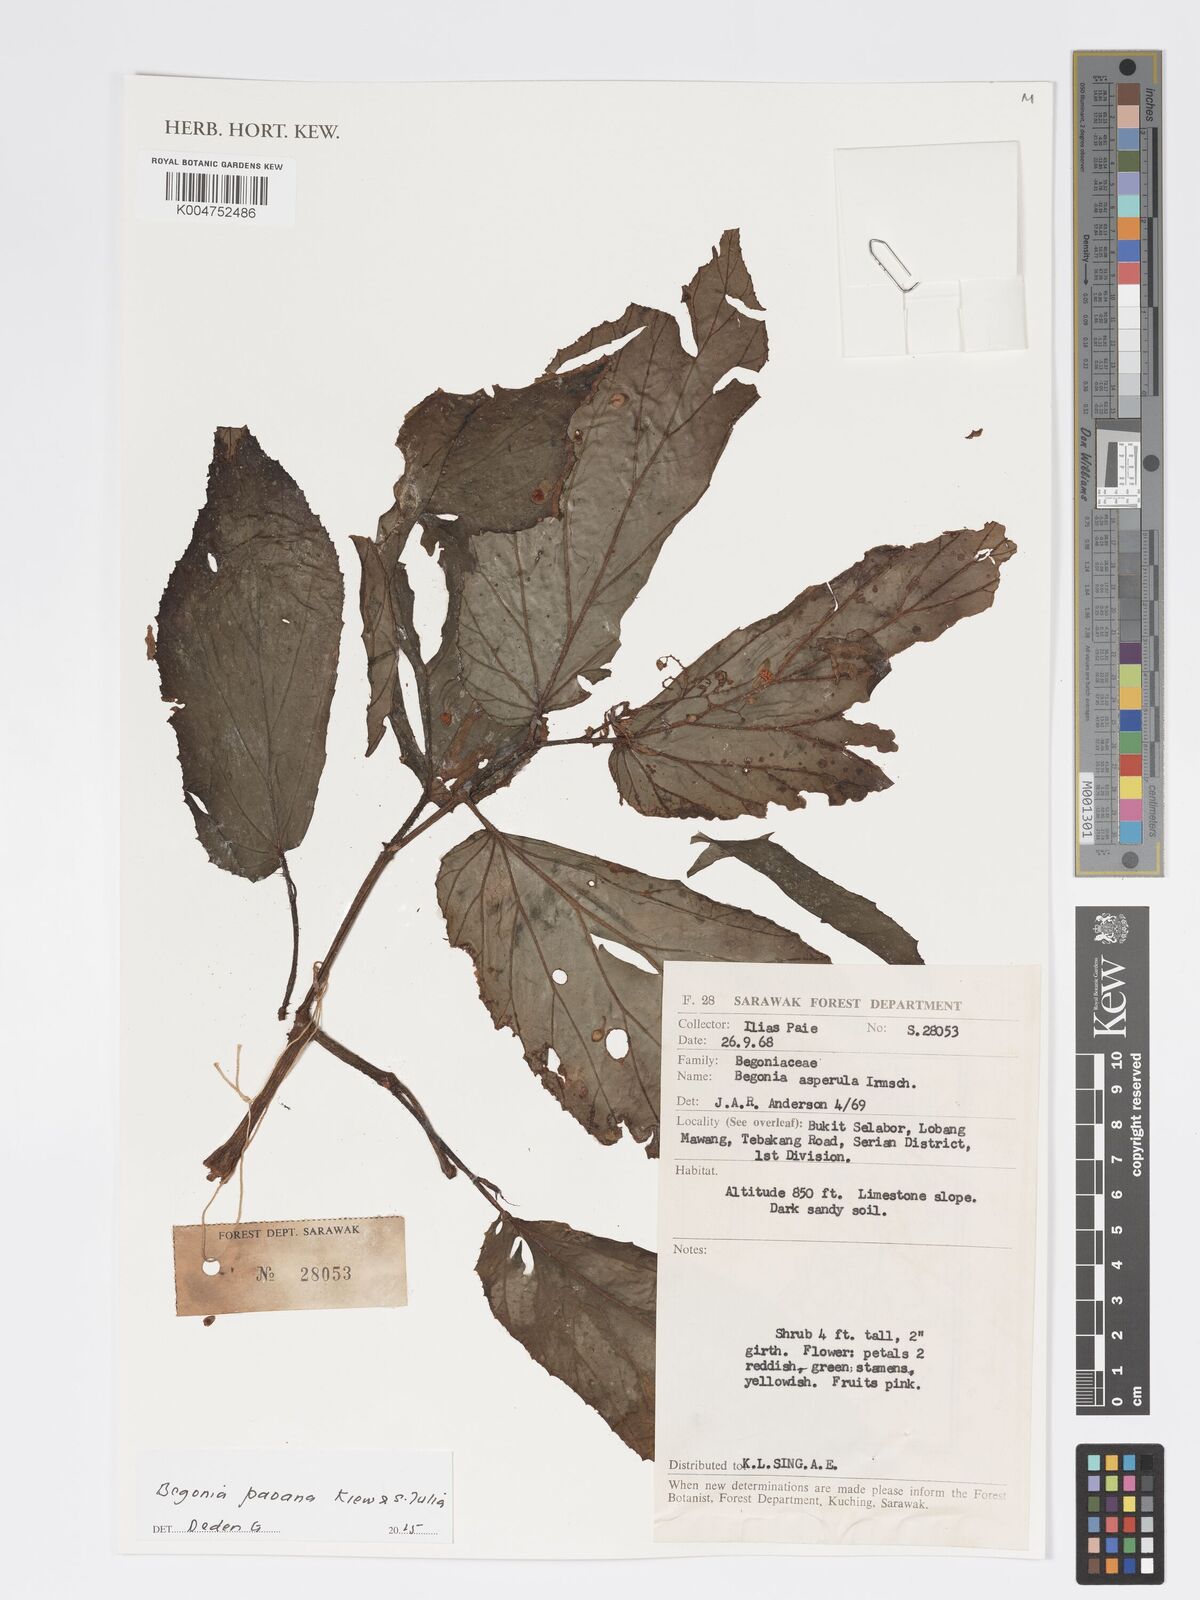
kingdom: Plantae
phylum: Tracheophyta
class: Magnoliopsida
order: Cucurbitales
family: Begoniaceae
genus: Begonia
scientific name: Begonia paoana
